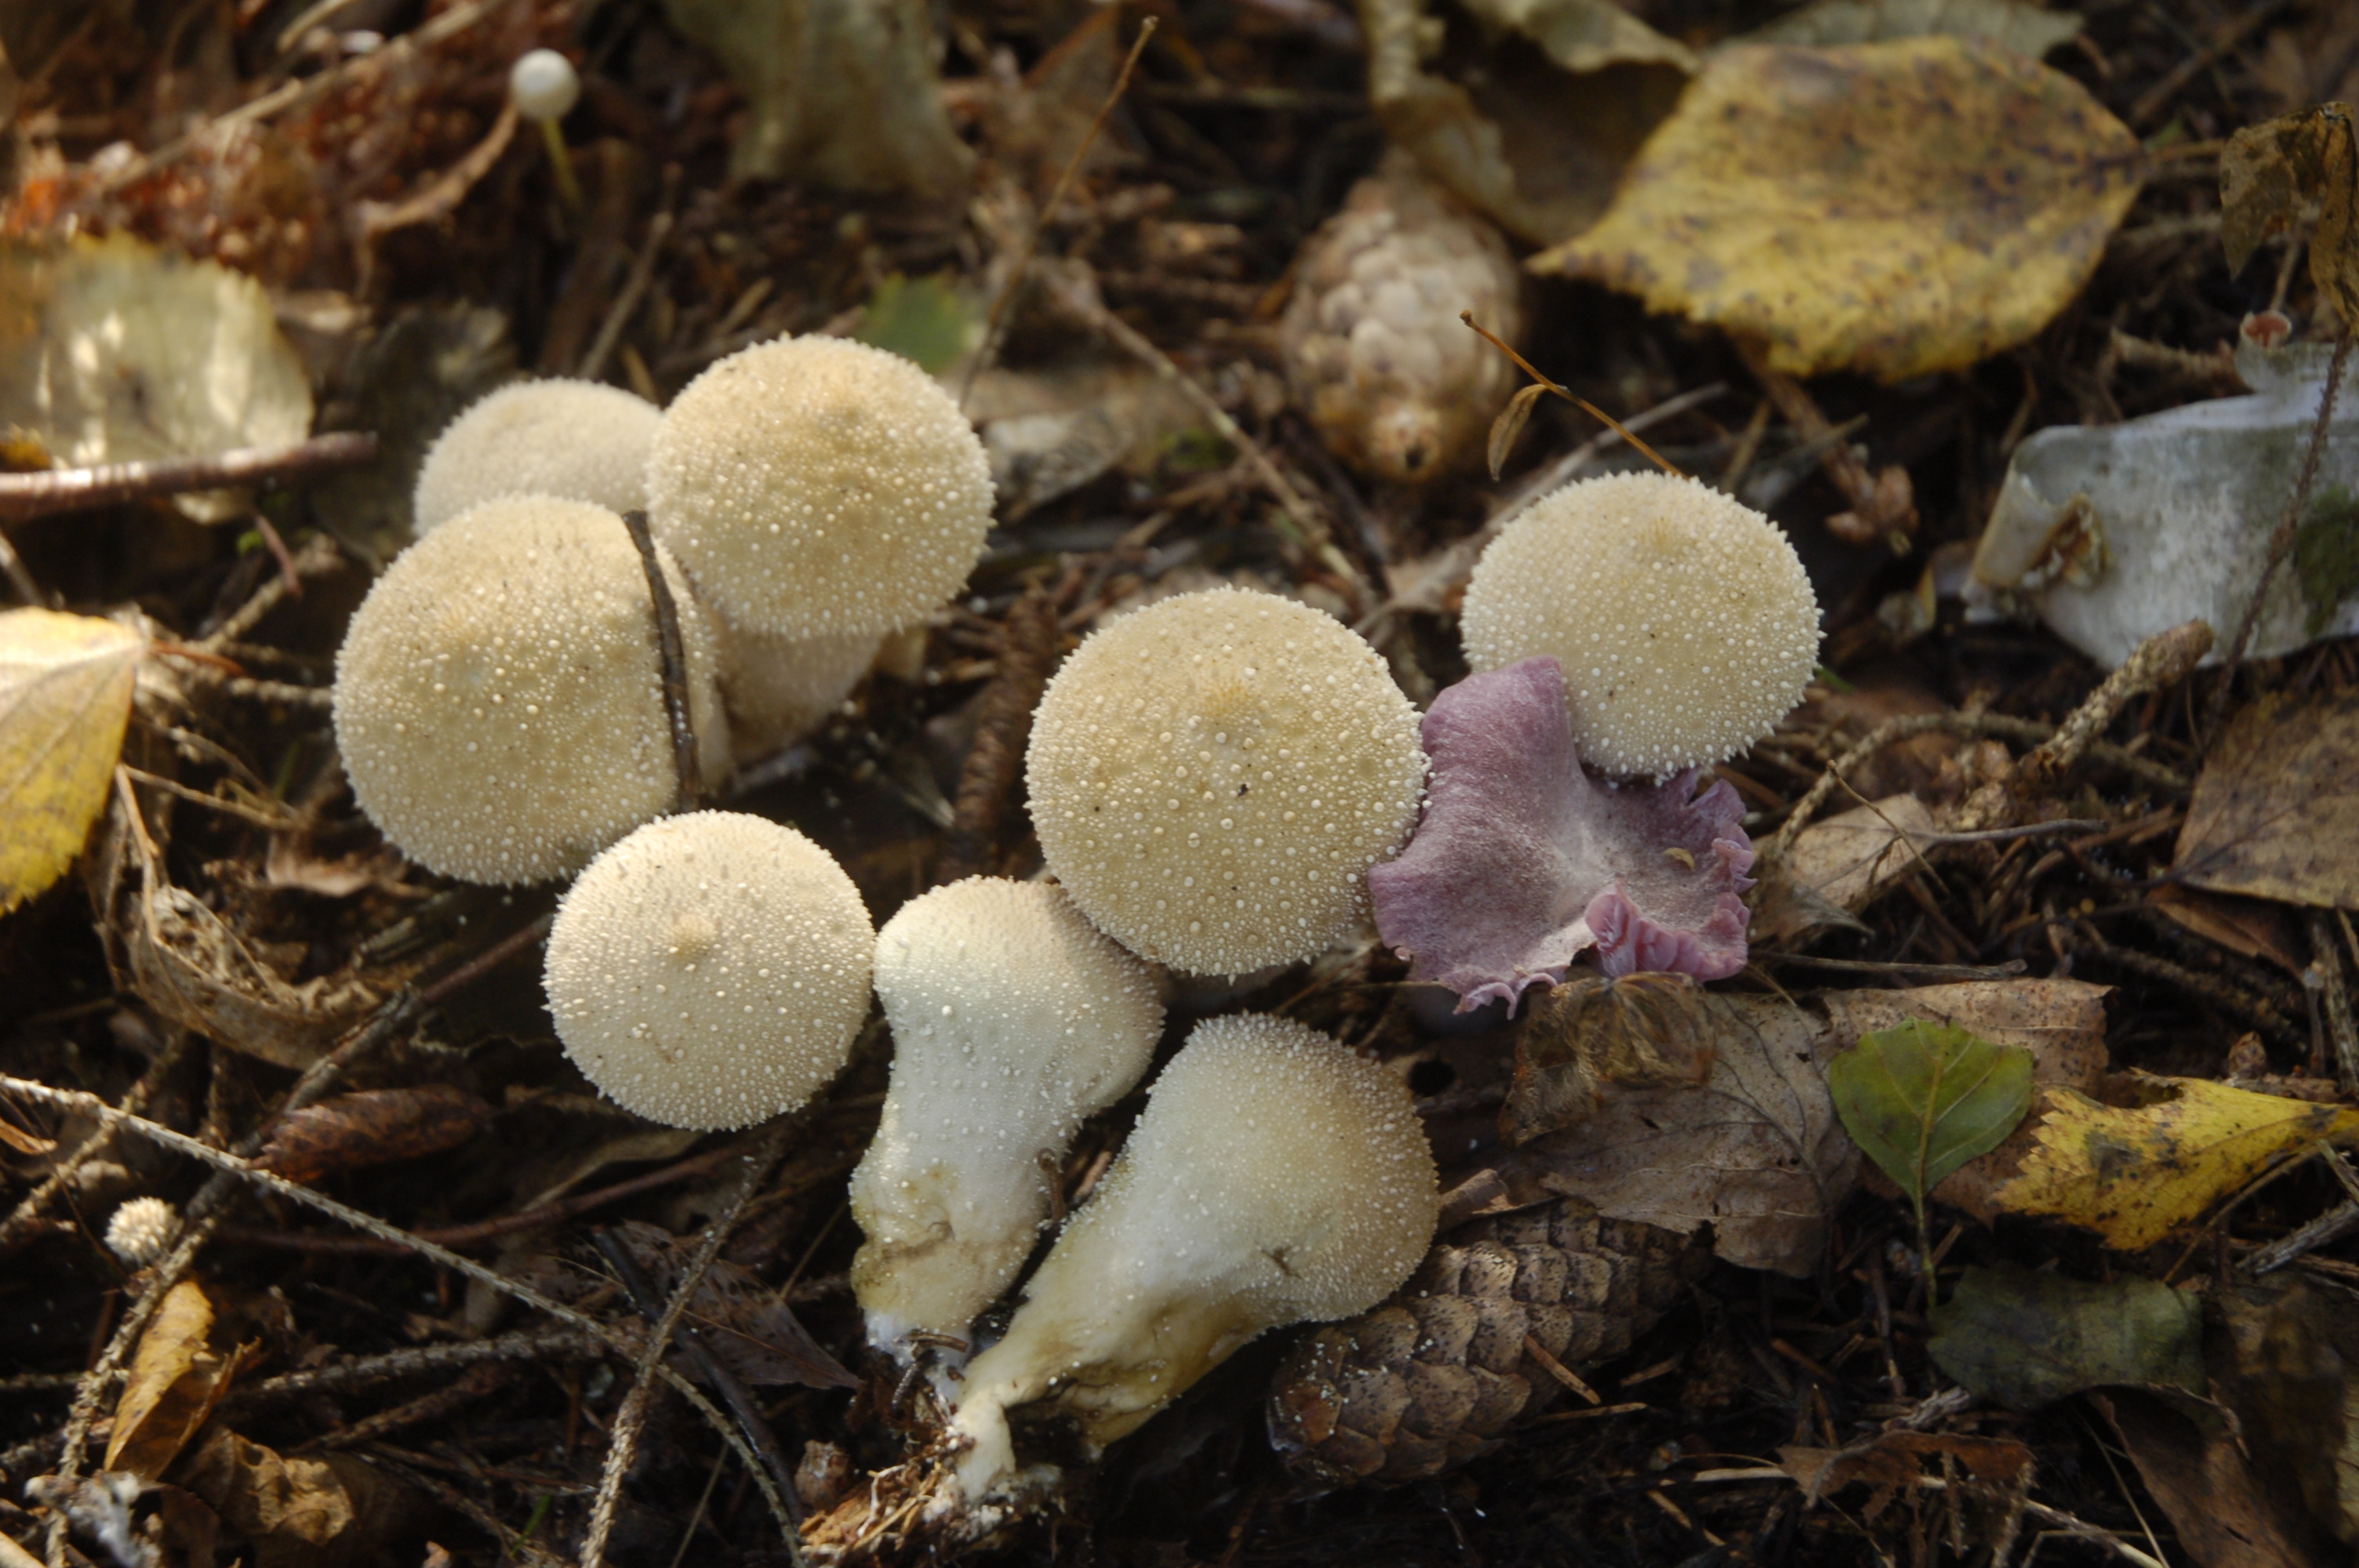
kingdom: Fungi
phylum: Basidiomycota
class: Agaricomycetes
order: Agaricales
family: Lycoperdaceae
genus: Lycoperdon
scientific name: Lycoperdon perlatum
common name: Common puffball
